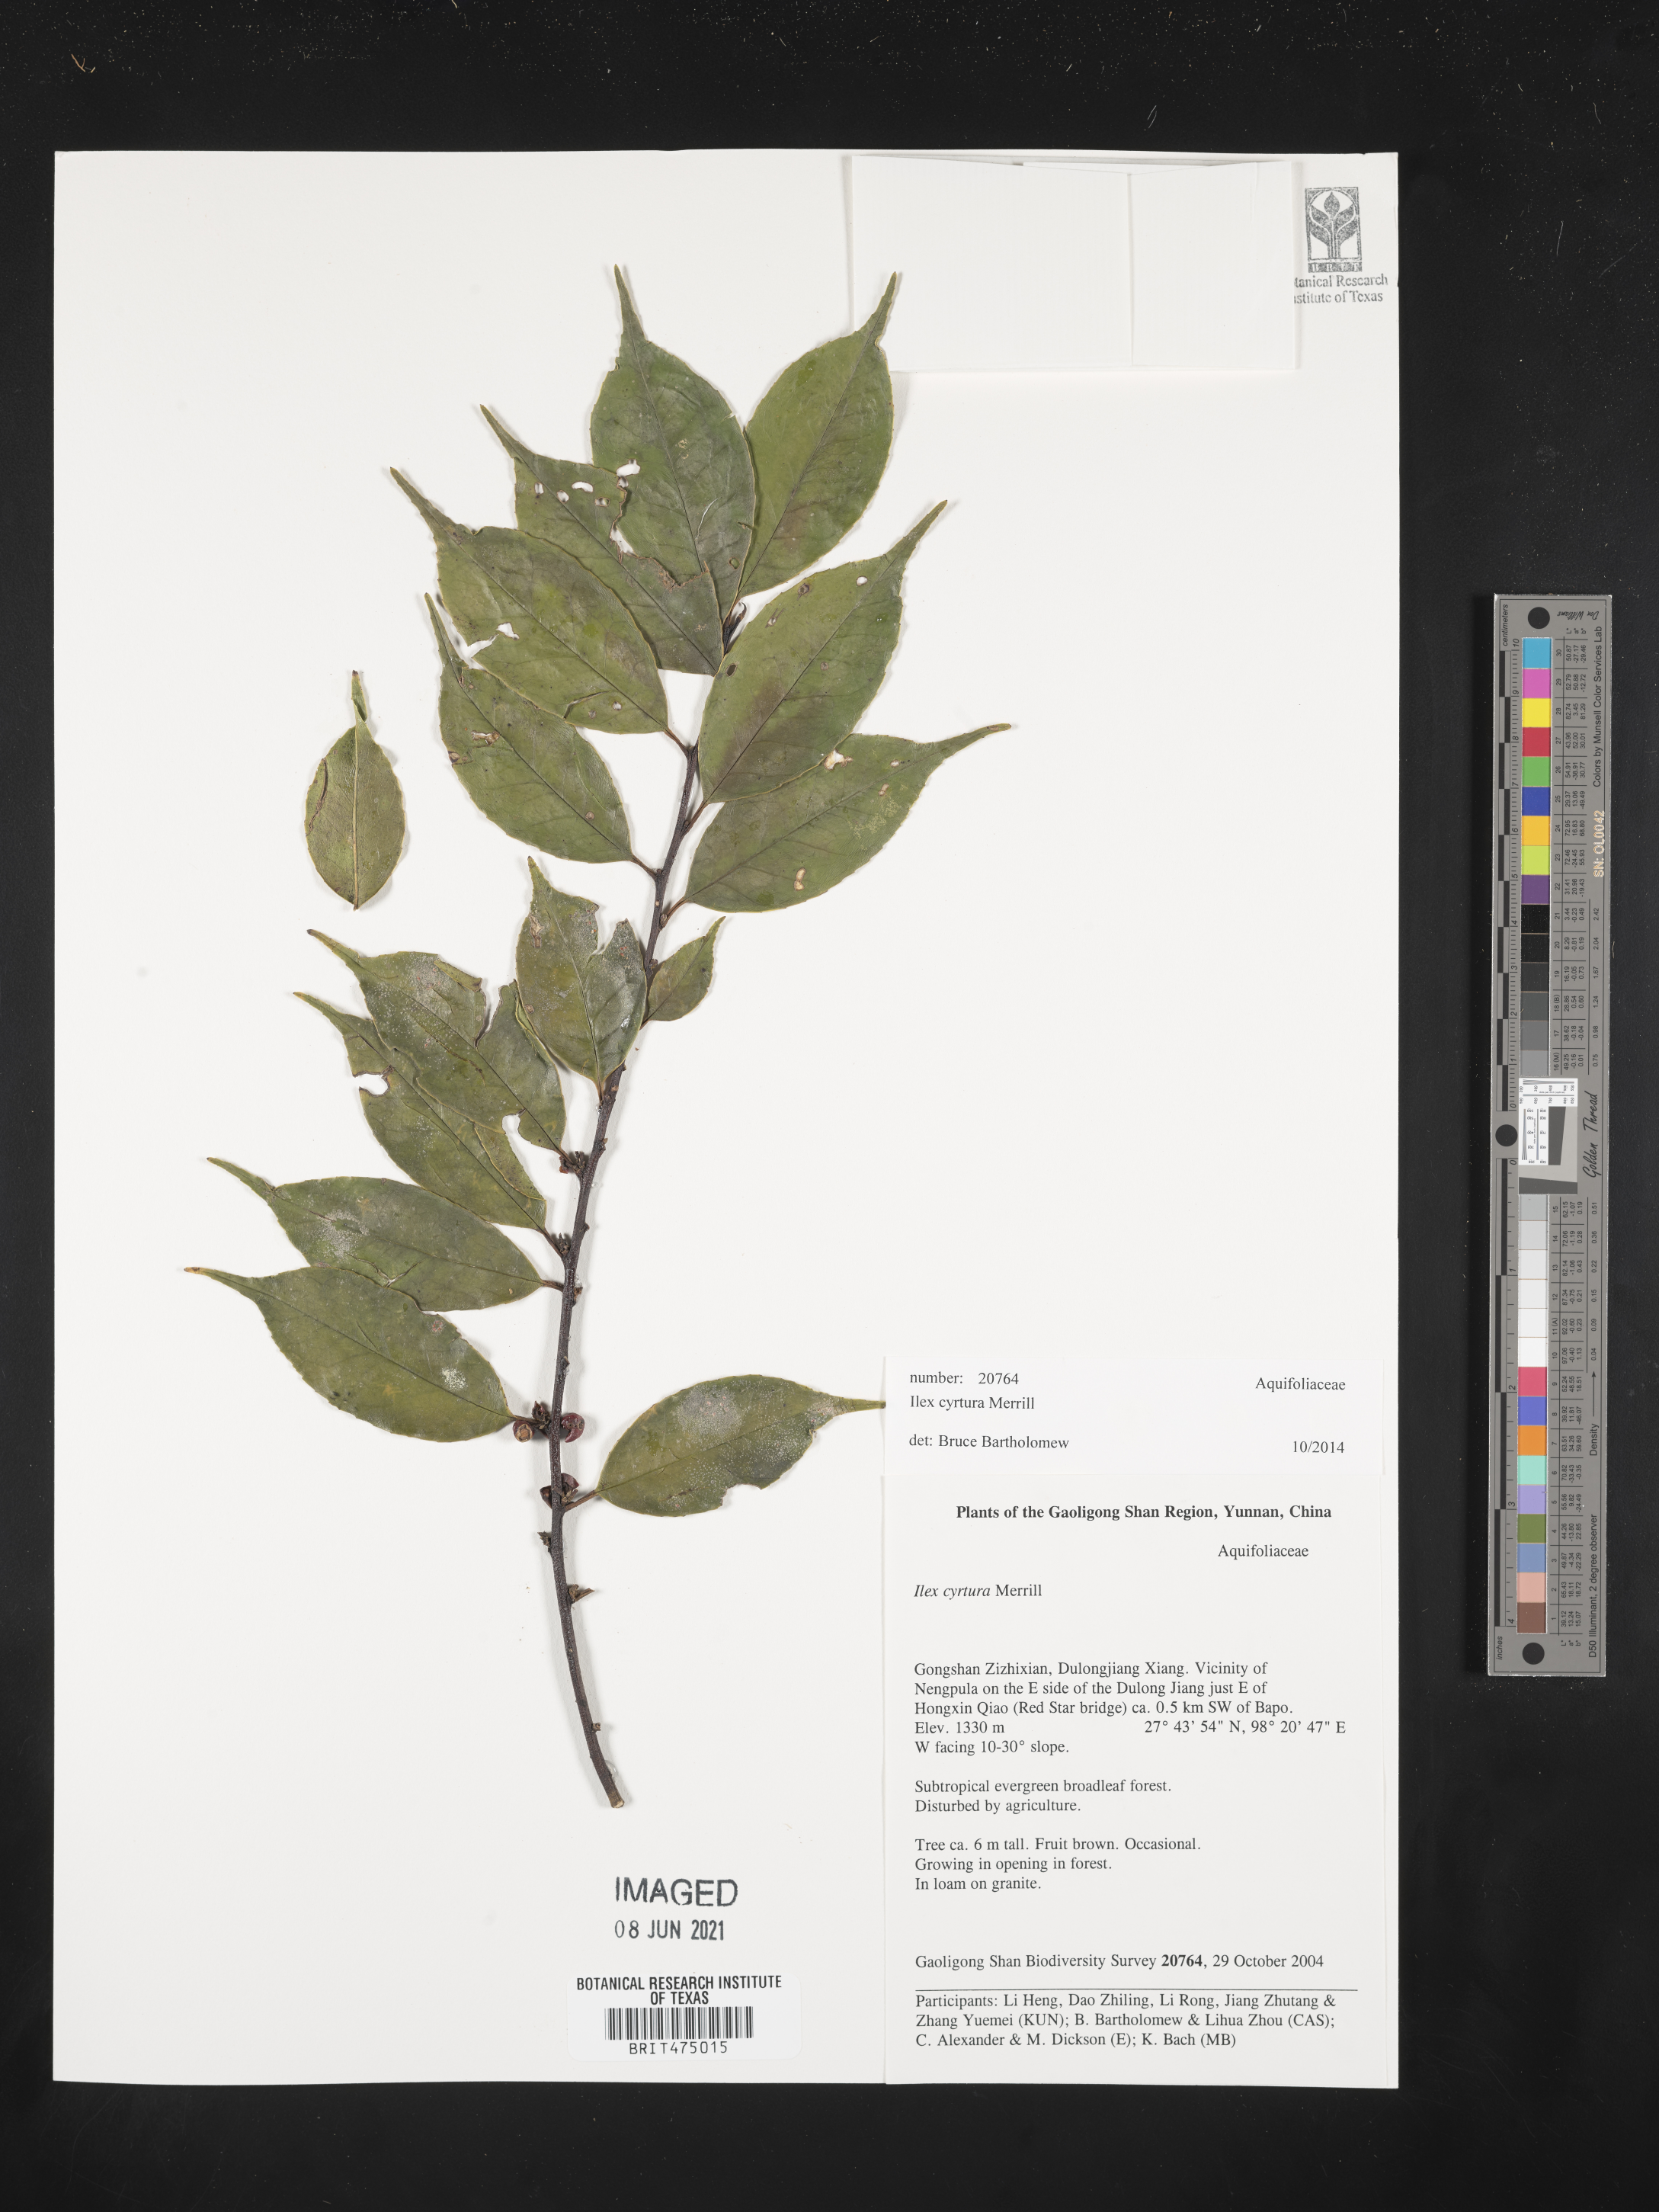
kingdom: Plantae
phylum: Tracheophyta
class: Magnoliopsida
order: Aquifoliales
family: Aquifoliaceae
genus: Ilex
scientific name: Ilex cyrtura
